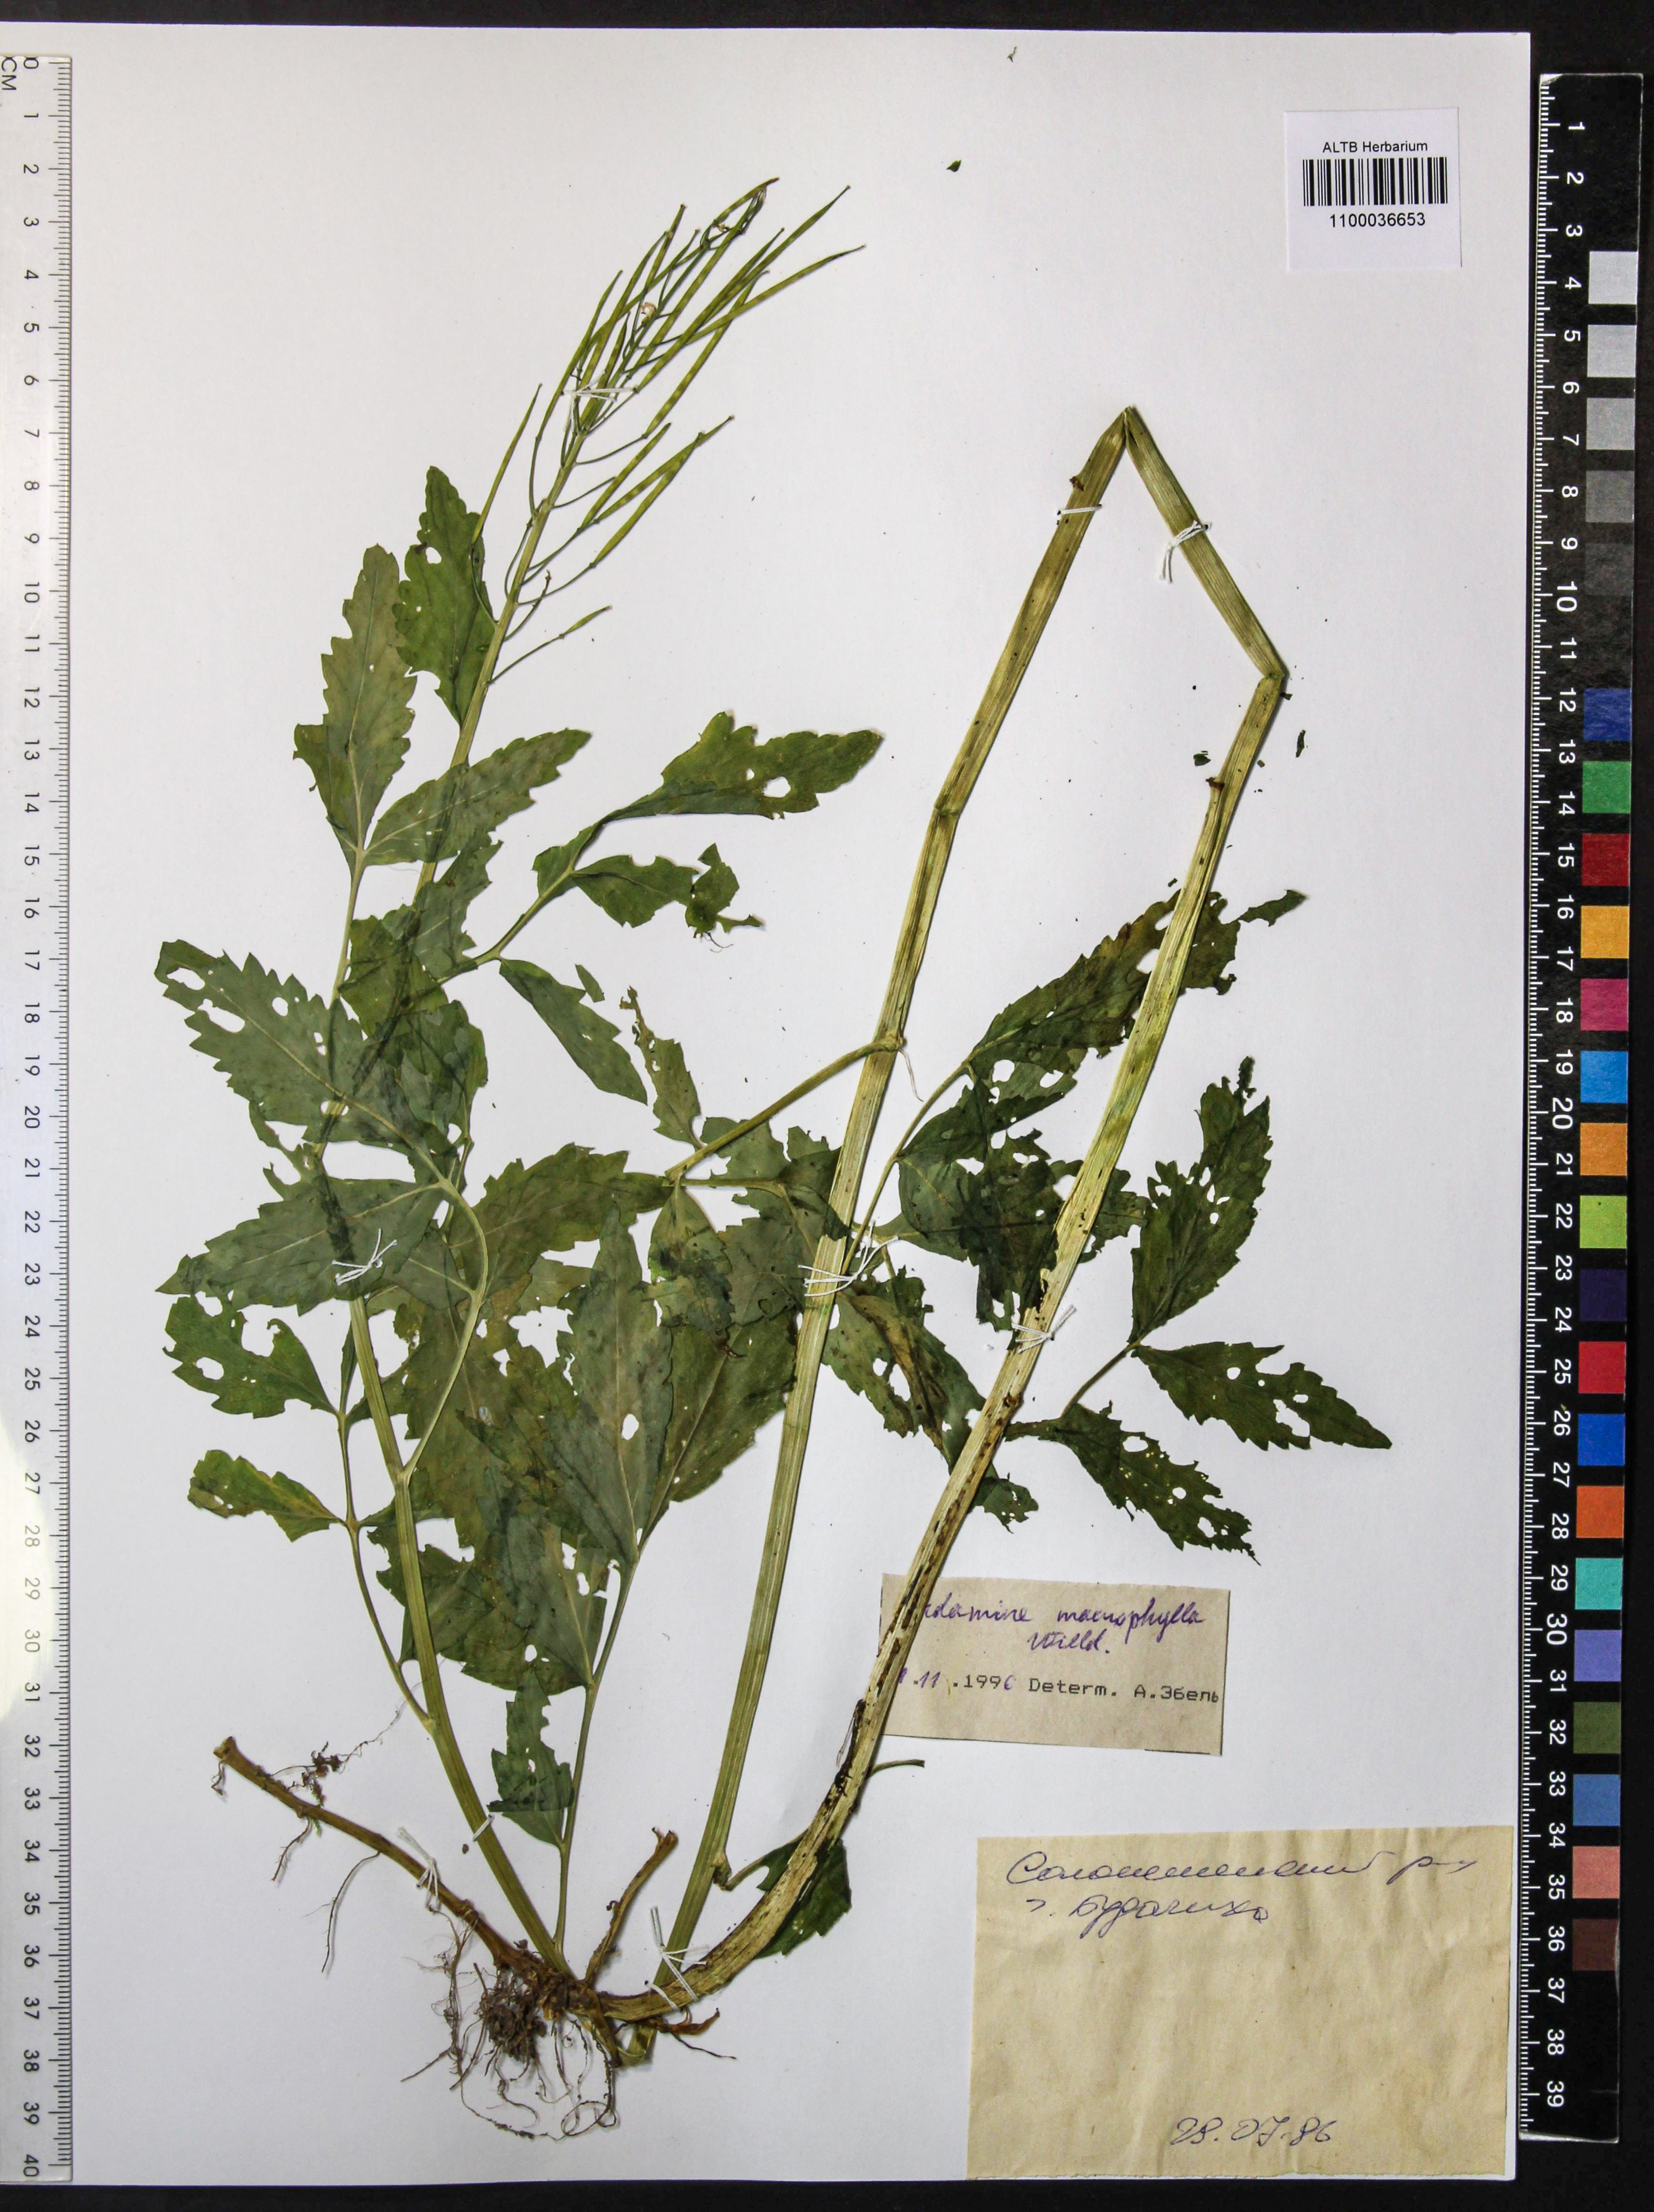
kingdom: Plantae
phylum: Tracheophyta
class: Magnoliopsida
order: Brassicales
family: Brassicaceae
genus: Cardamine
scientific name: Cardamine macrophylla
